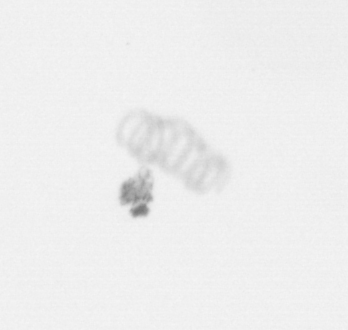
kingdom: Chromista
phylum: Ochrophyta
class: Bacillariophyceae
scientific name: Bacillariophyceae
